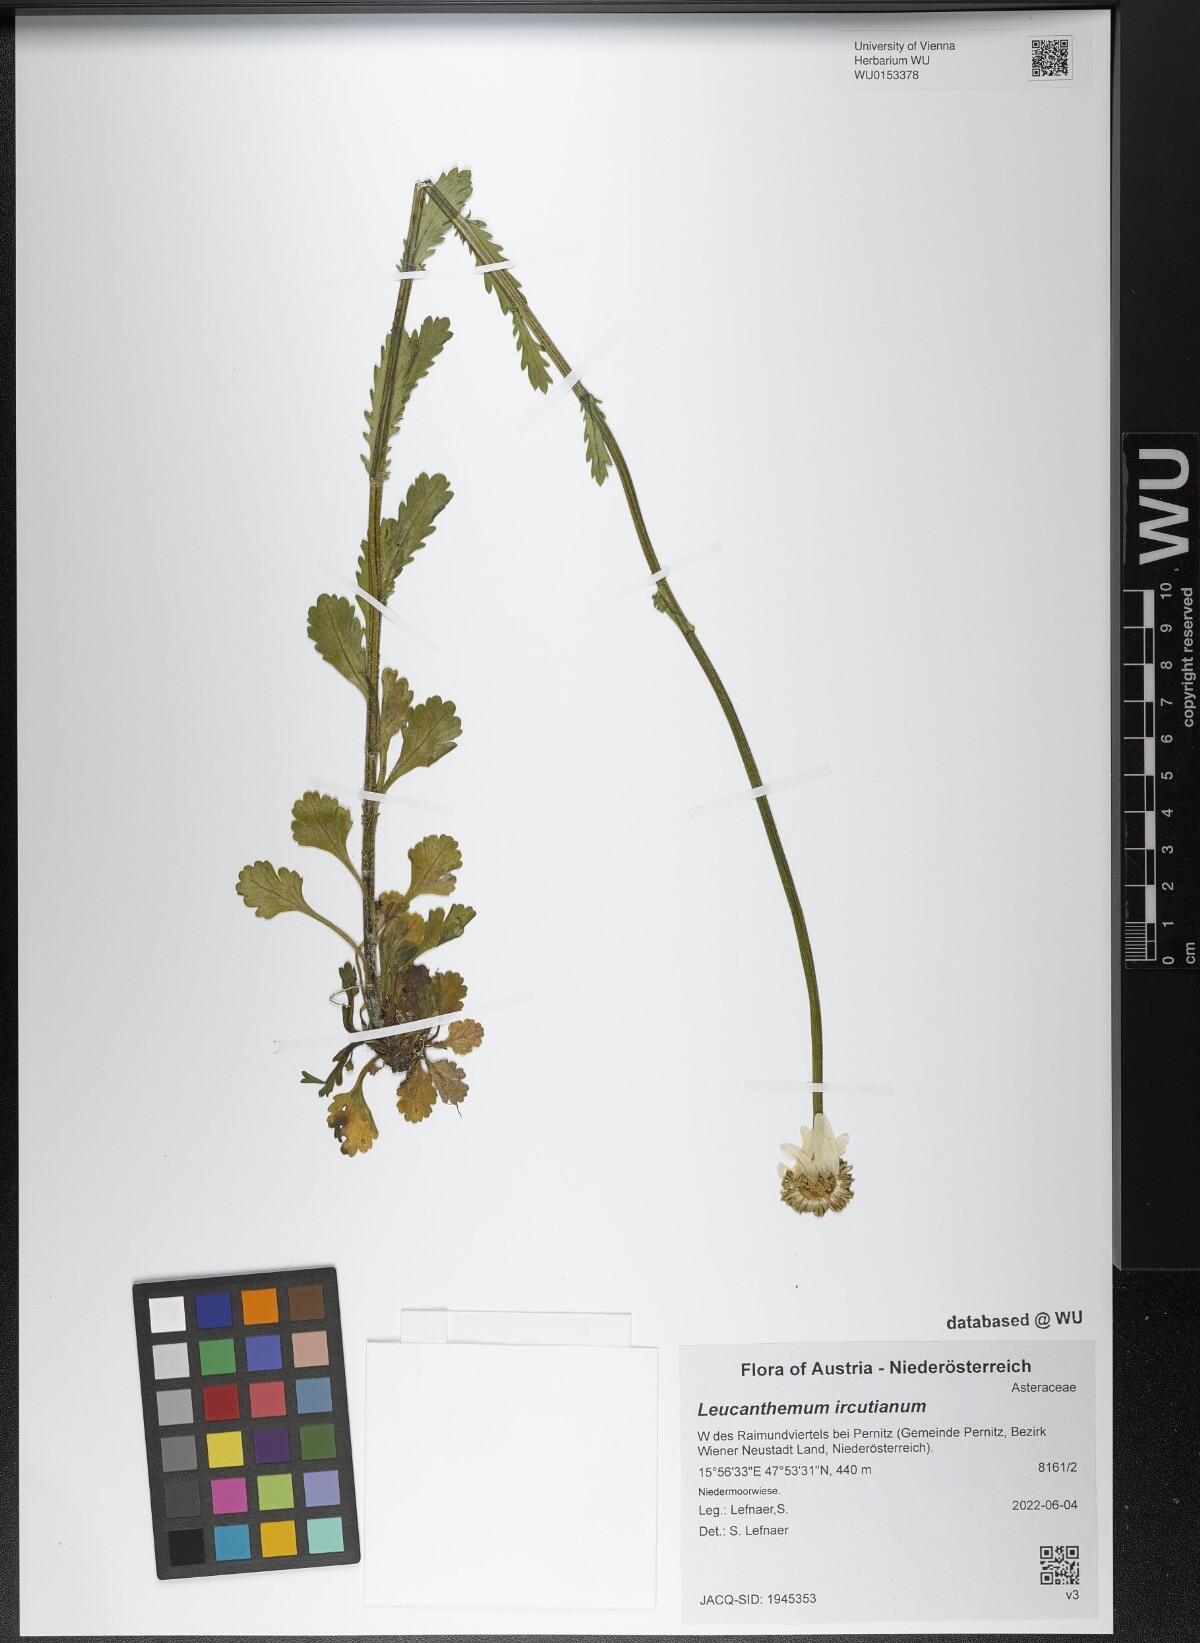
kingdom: Plantae
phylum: Tracheophyta
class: Magnoliopsida
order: Asterales
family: Asteraceae
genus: Leucanthemum
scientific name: Leucanthemum ircutianum
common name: Daisy
